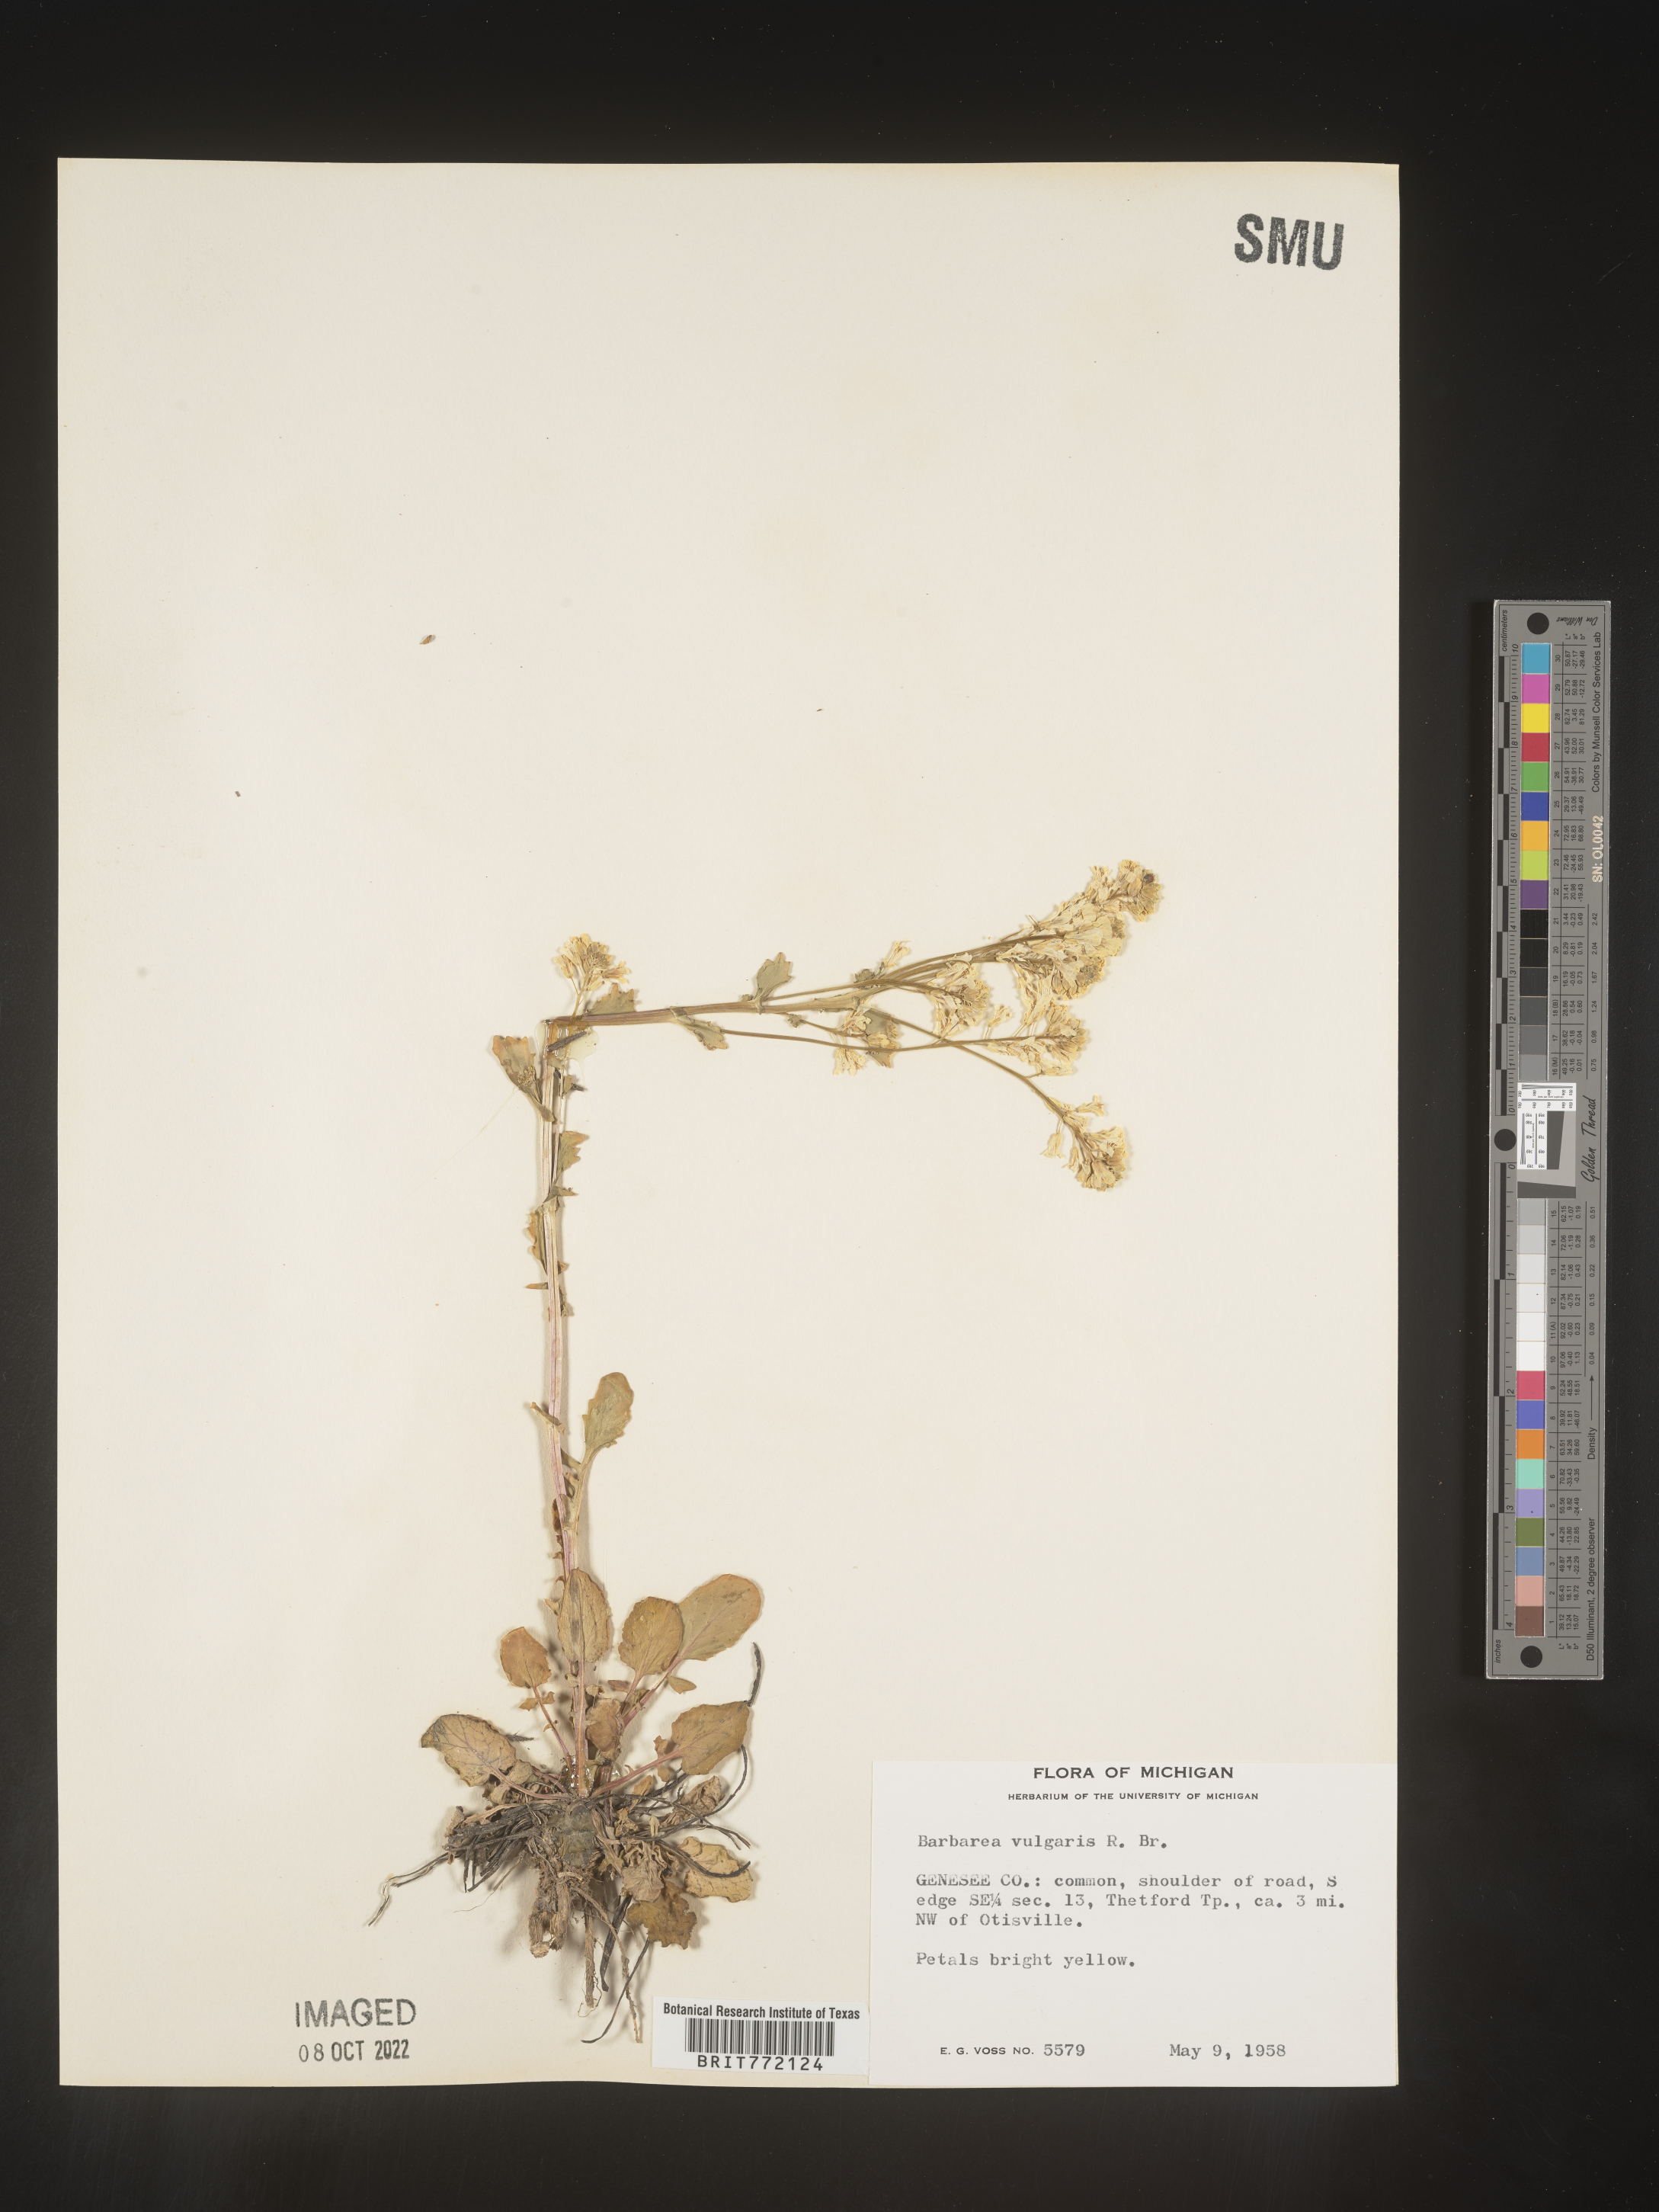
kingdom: Plantae
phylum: Tracheophyta
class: Magnoliopsida
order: Brassicales
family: Brassicaceae
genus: Barbarea
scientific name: Barbarea vulgaris
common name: Cressy-greens
